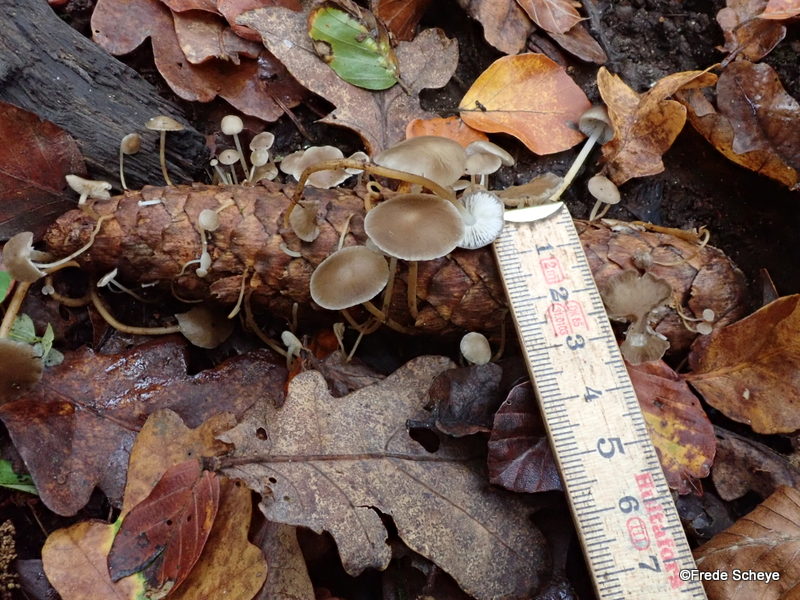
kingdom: Fungi
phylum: Basidiomycota
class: Agaricomycetes
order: Agaricales
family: Physalacriaceae
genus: Strobilurus
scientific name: Strobilurus esculentus
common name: gran-koglehat
